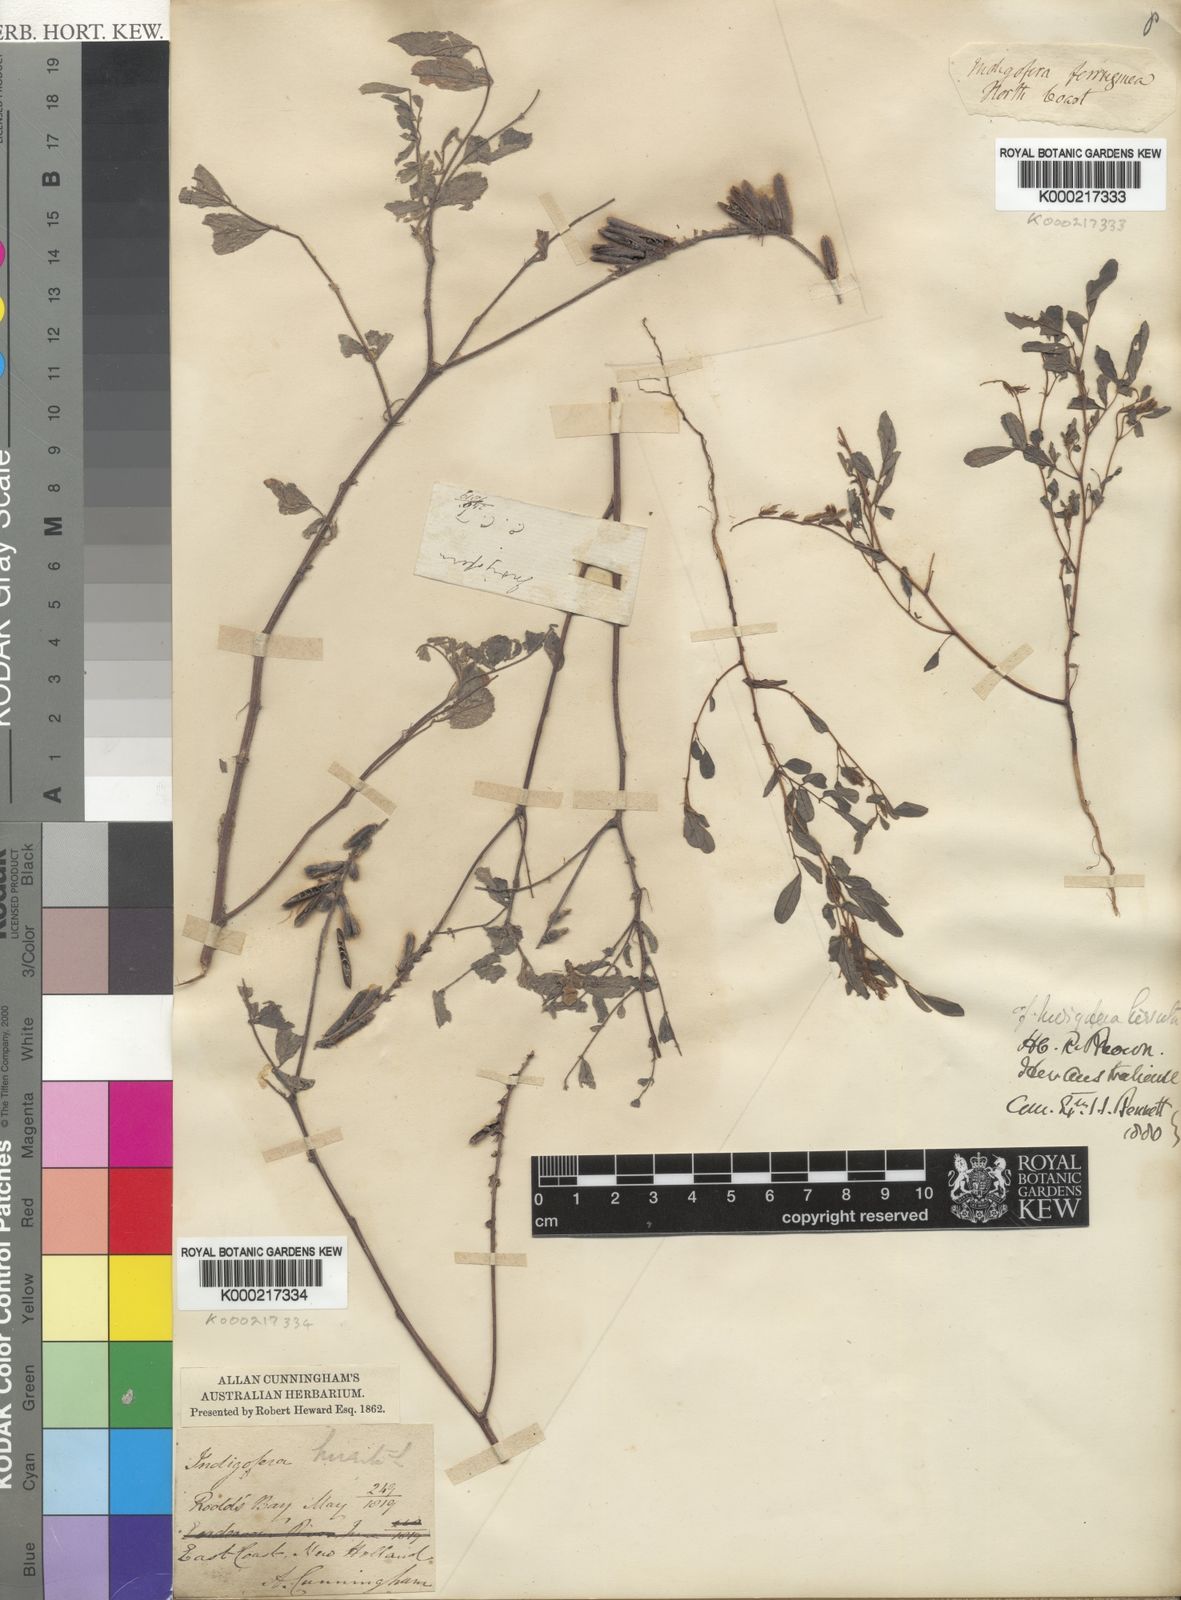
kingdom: Plantae
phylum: Tracheophyta
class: Magnoliopsida
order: Fabales
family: Fabaceae
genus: Indigofera
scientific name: Indigofera hirsuta
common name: Hairy indigo
